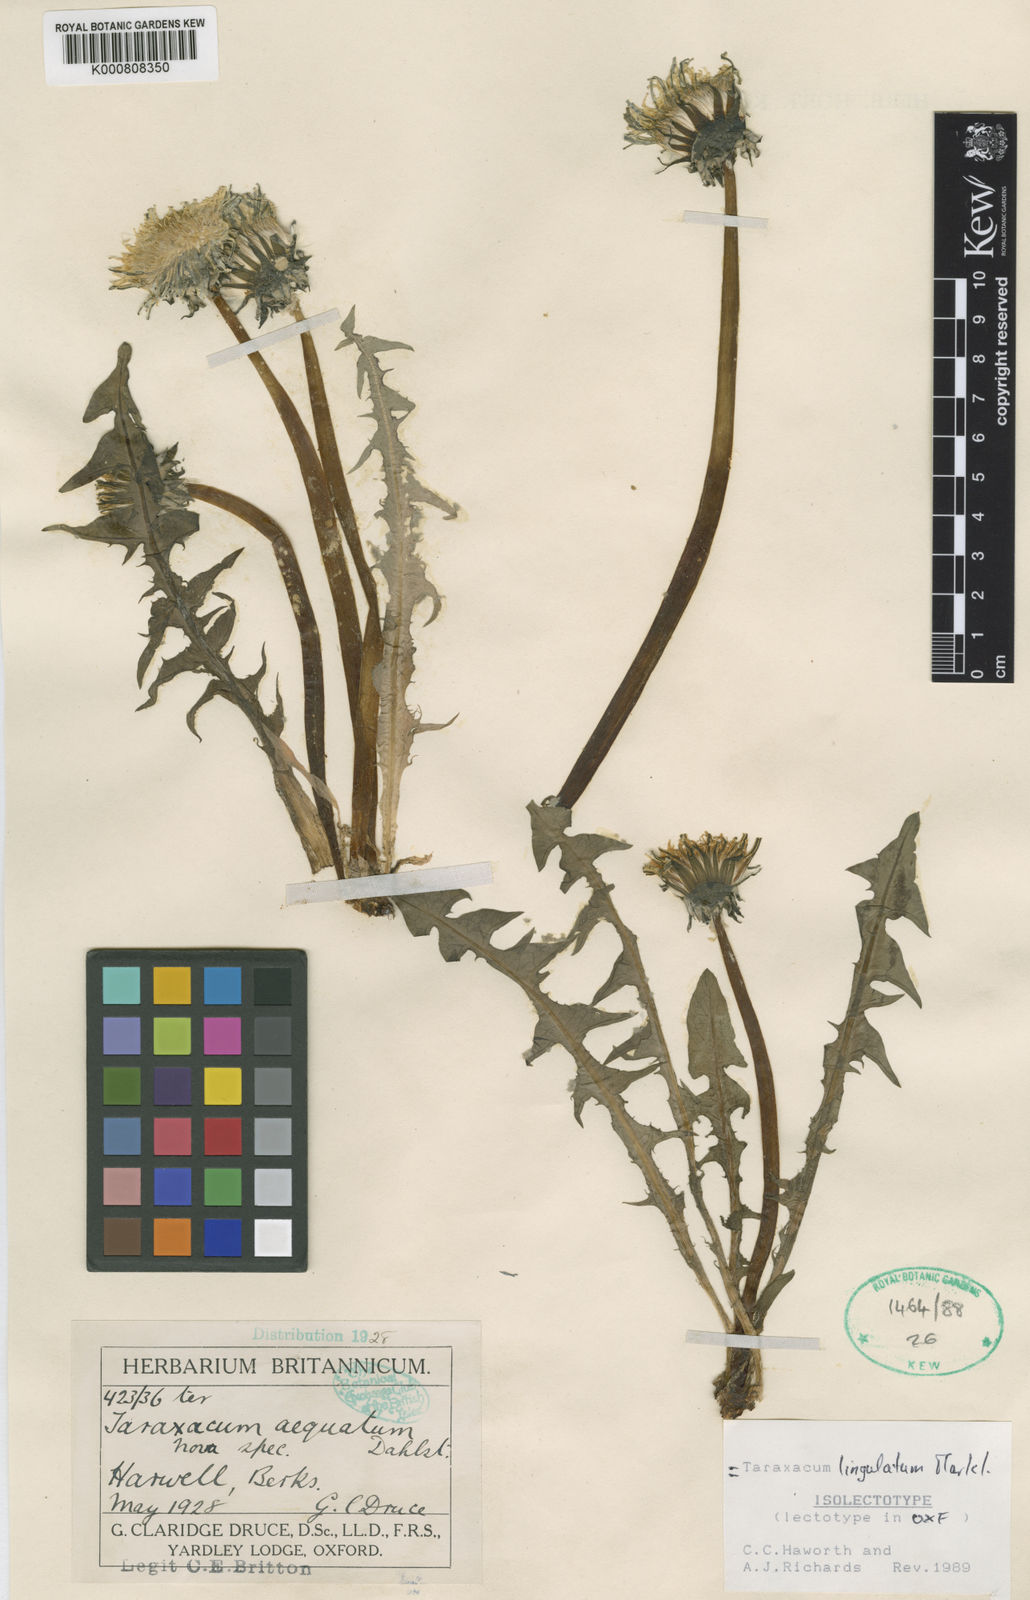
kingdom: Plantae
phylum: Tracheophyta
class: Magnoliopsida
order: Asterales
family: Asteraceae
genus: Taraxacum
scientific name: Taraxacum lingulatum
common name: Long-bracted dandelion
